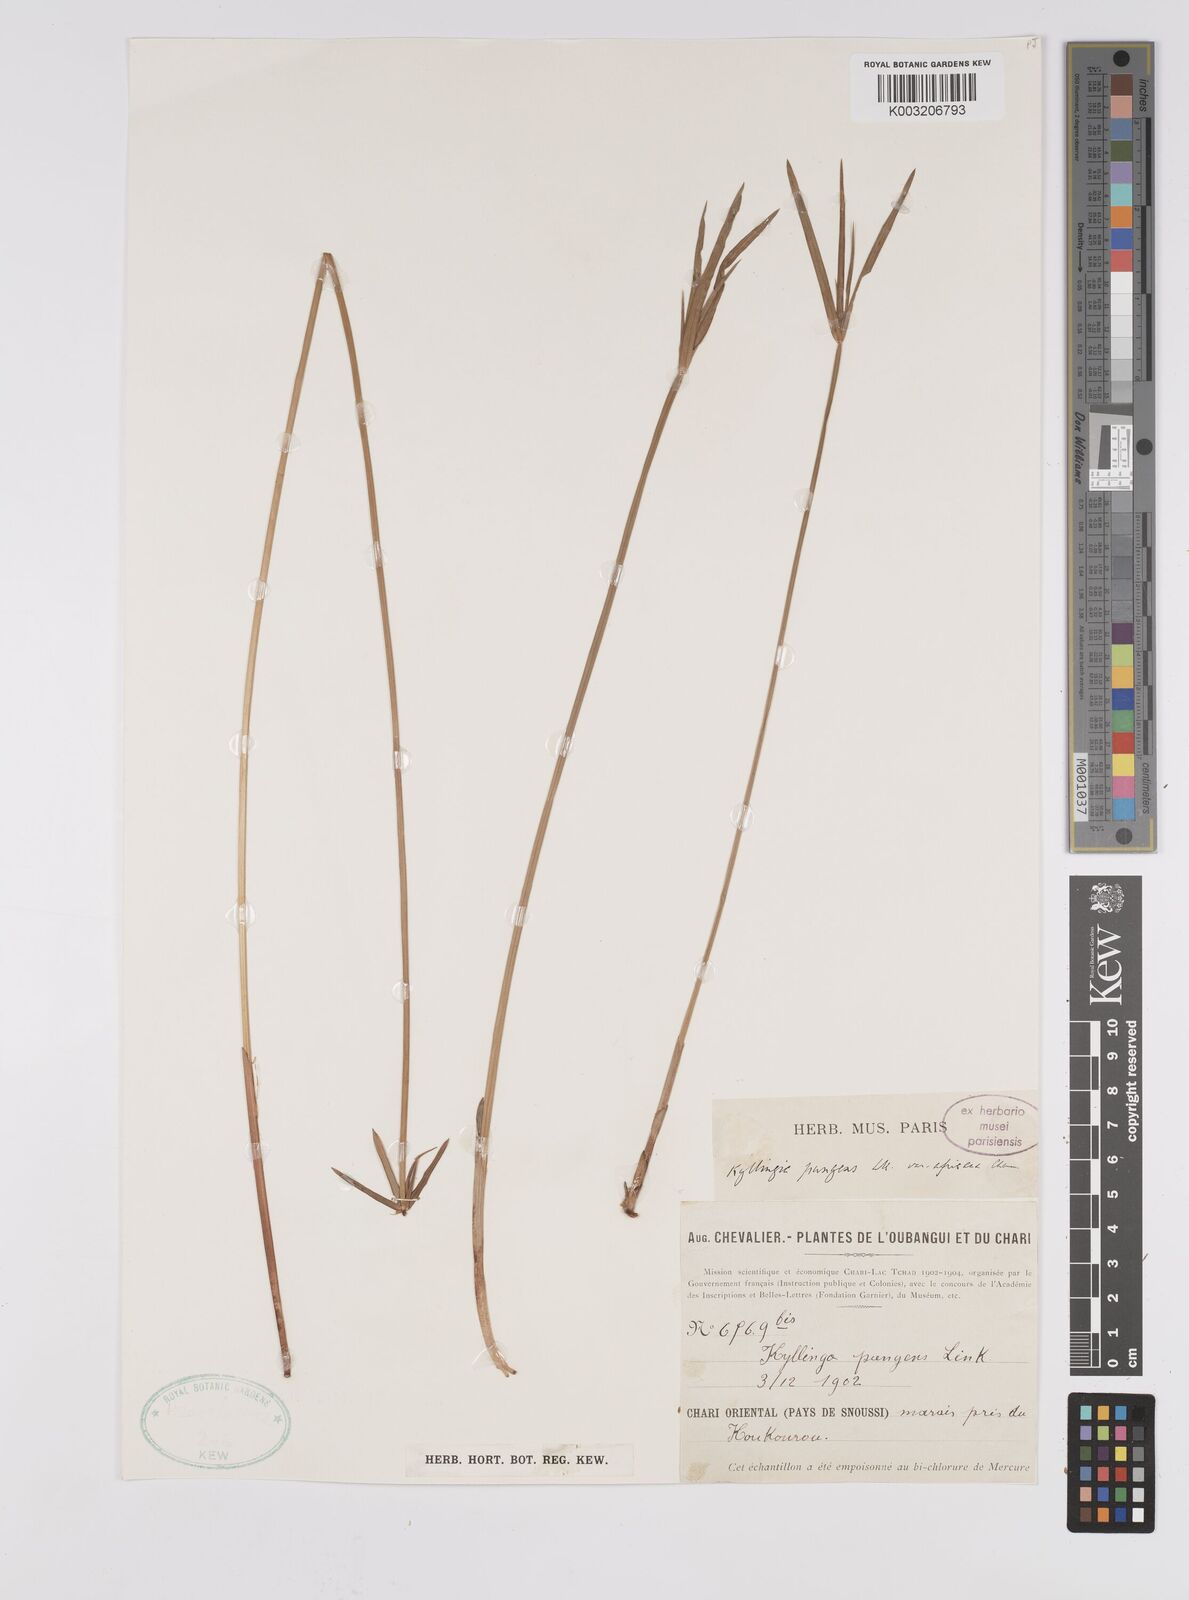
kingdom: Plantae
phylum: Tracheophyta
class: Liliopsida
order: Poales
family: Cyperaceae
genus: Cyperus
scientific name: Cyperus
